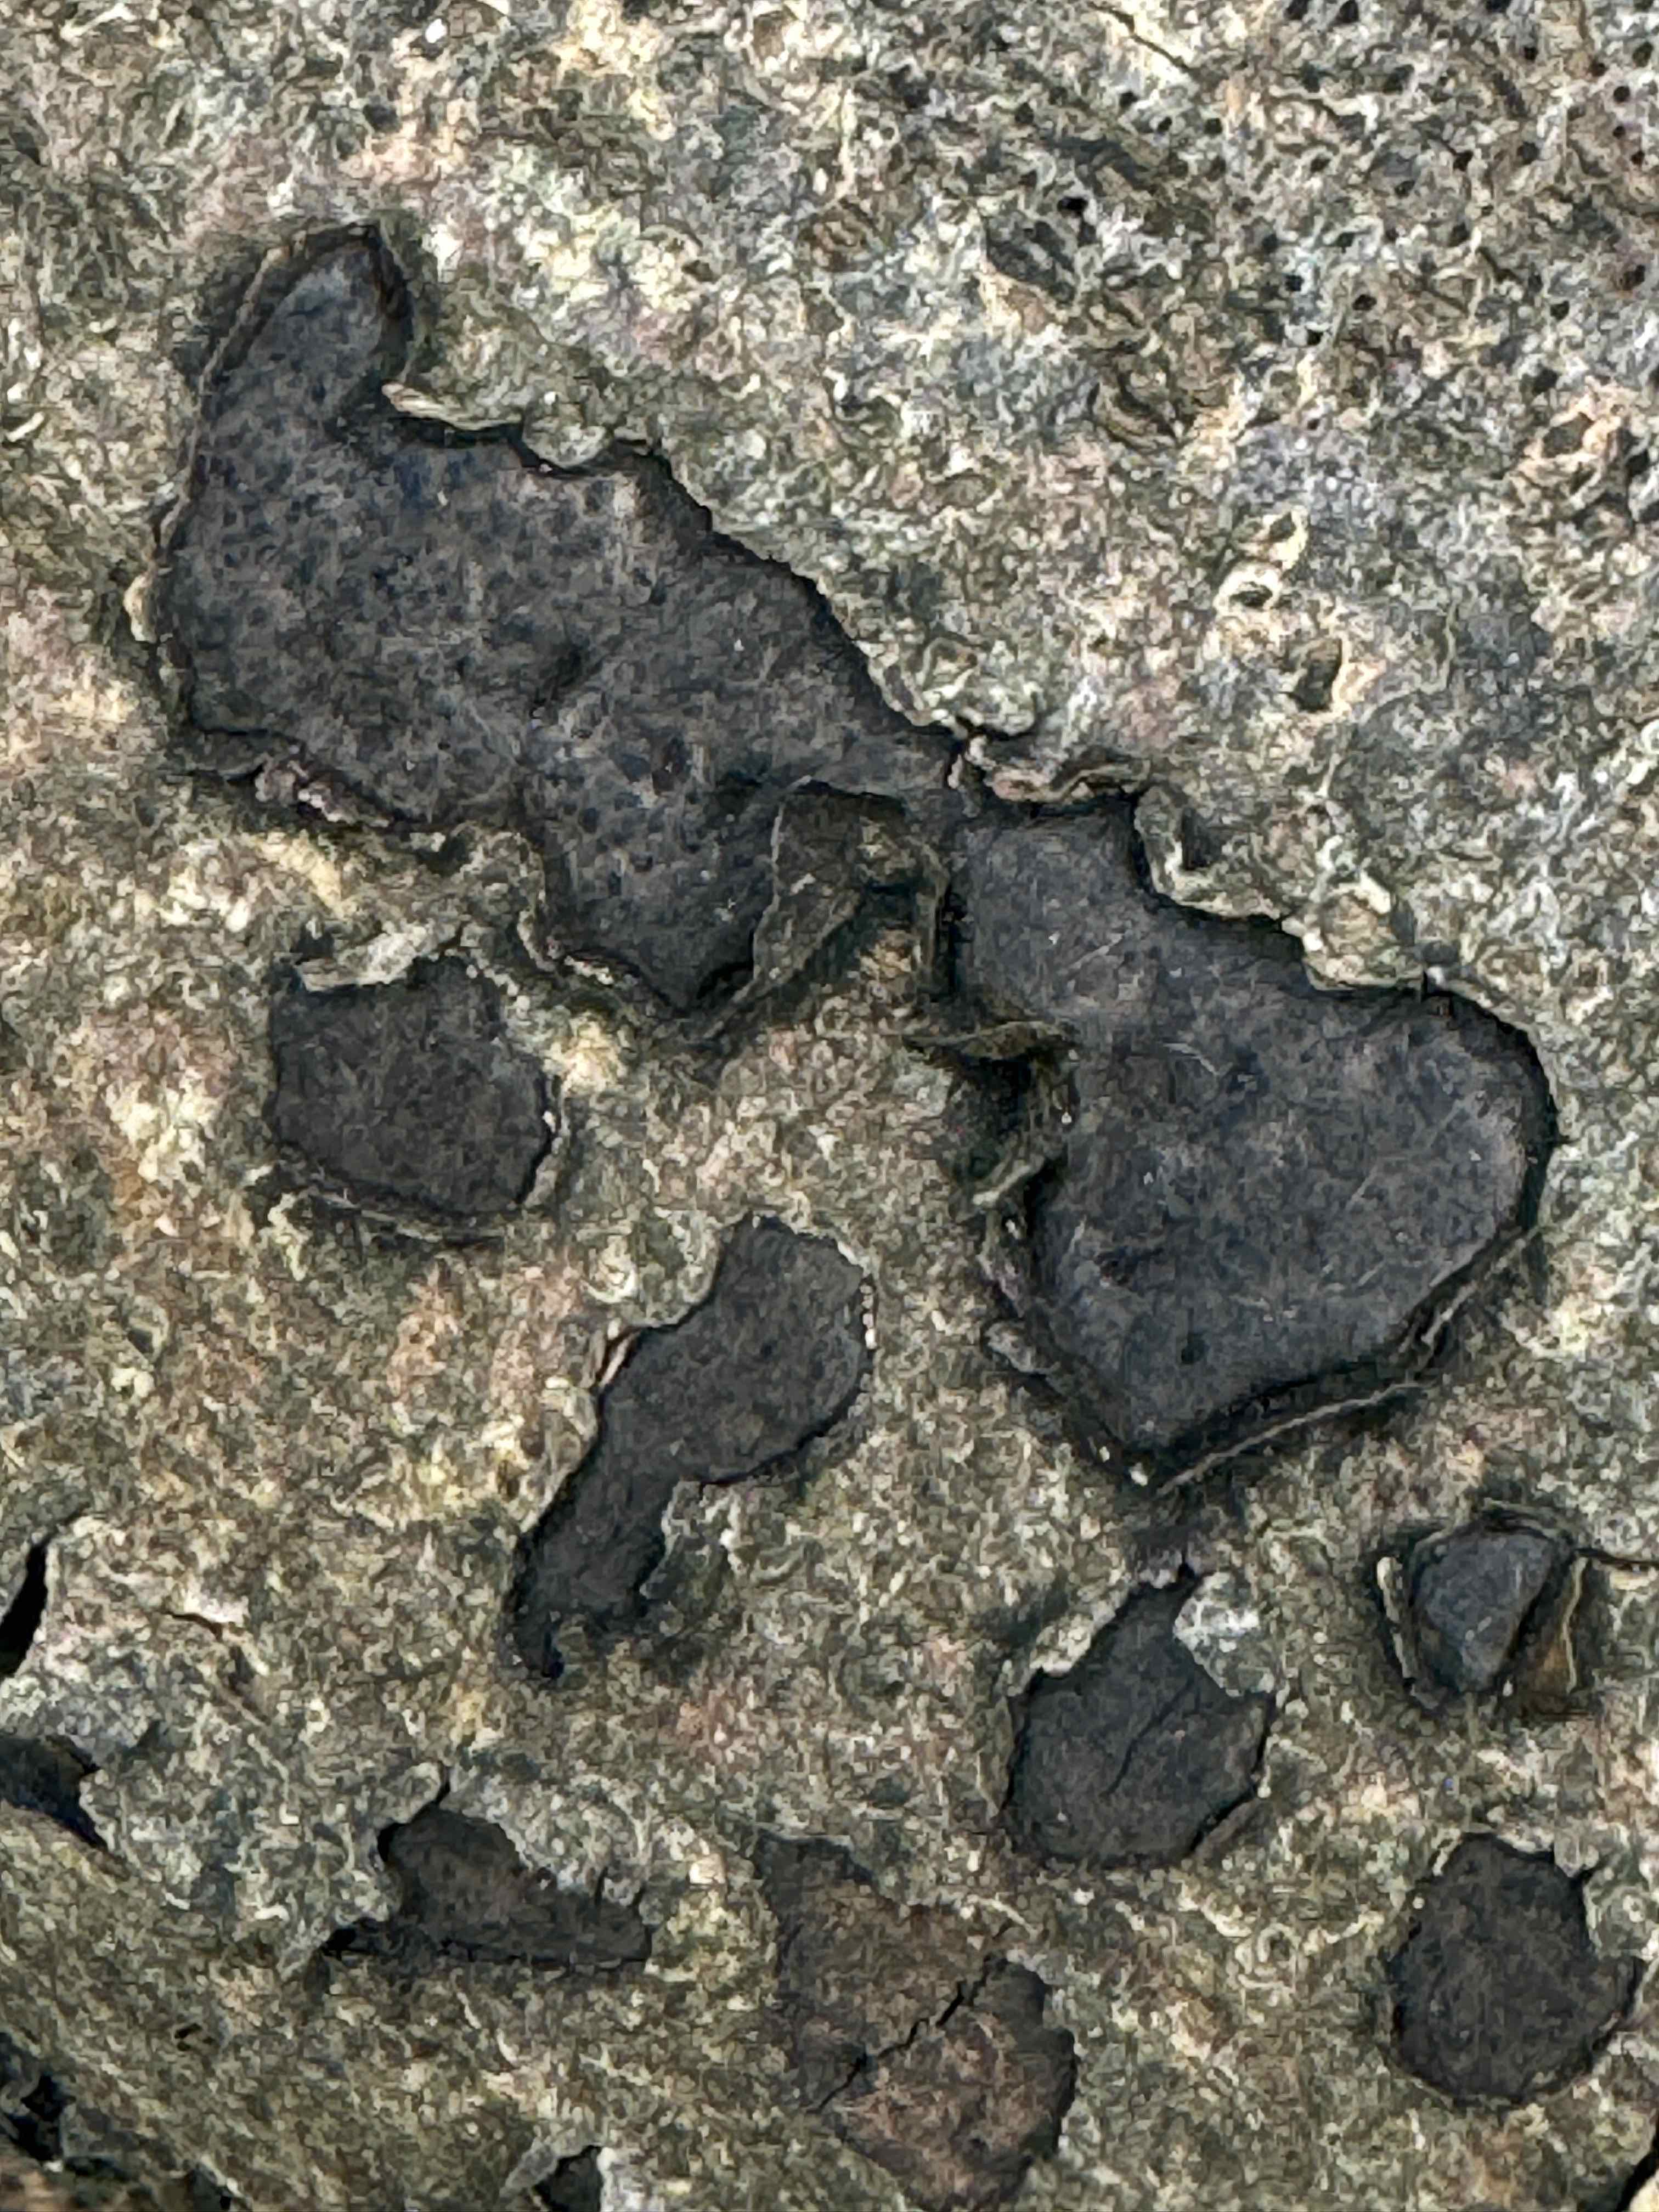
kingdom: Fungi
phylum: Ascomycota
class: Sordariomycetes
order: Xylariales
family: Graphostromataceae
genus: Biscogniauxia
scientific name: Biscogniauxia nummularia
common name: bøge-kulskive
